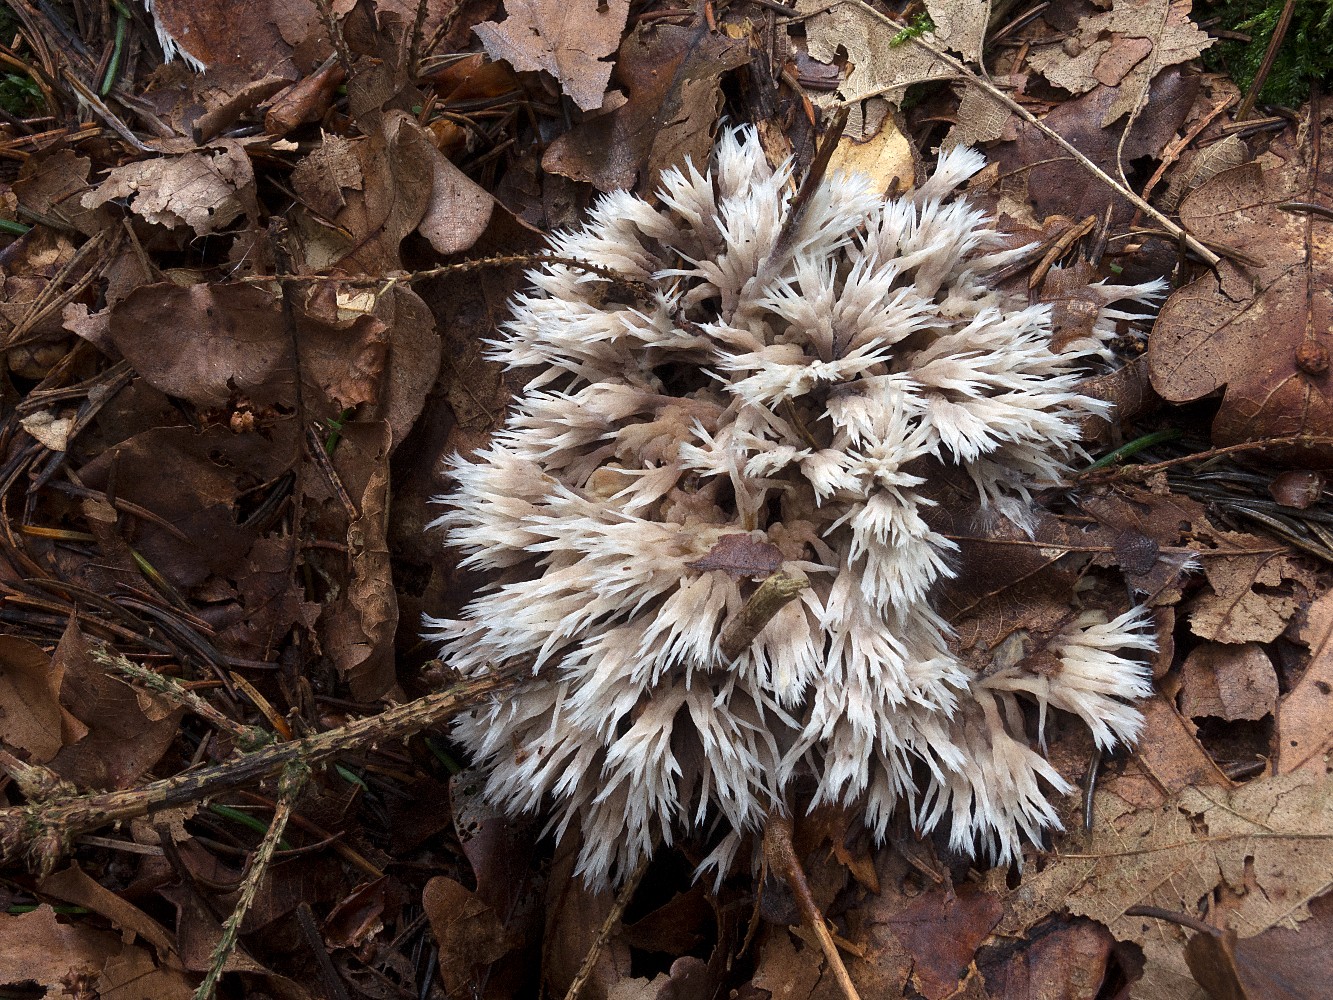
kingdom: Fungi
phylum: Basidiomycota
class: Agaricomycetes
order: Thelephorales
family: Thelephoraceae
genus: Thelephora
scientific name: Thelephora penicillata
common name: fladtrådt frynsesvamp
